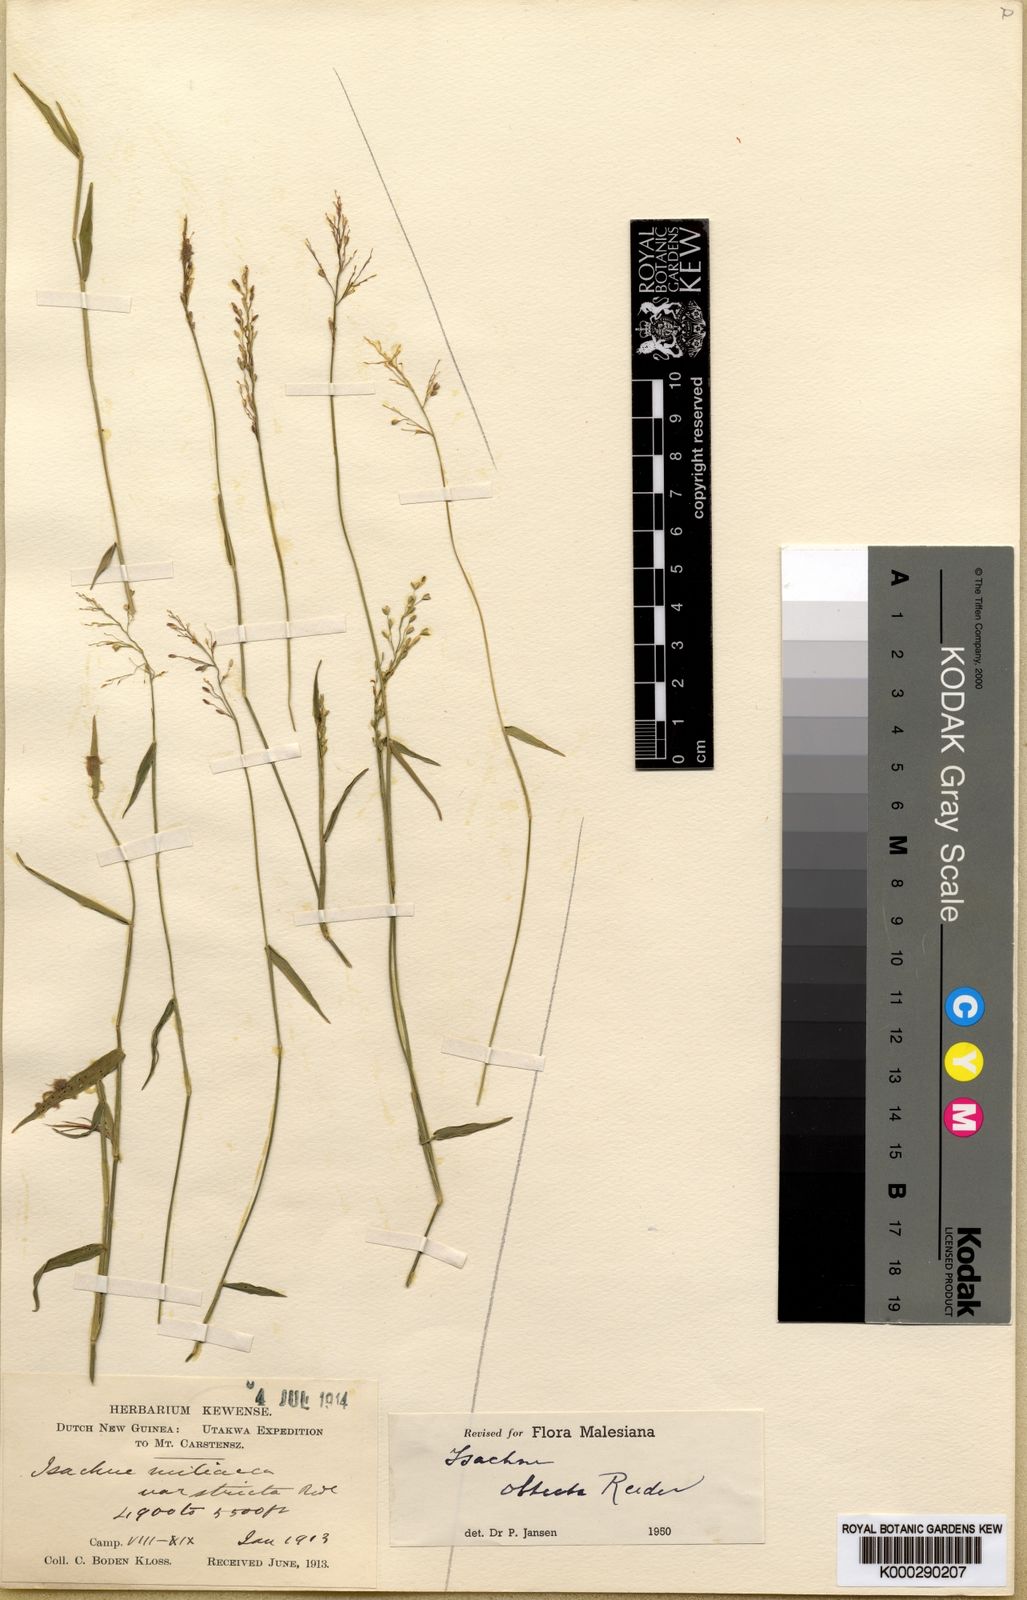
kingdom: Plantae
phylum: Tracheophyta
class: Liliopsida
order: Poales
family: Poaceae
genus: Isachne
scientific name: Isachne stricta
